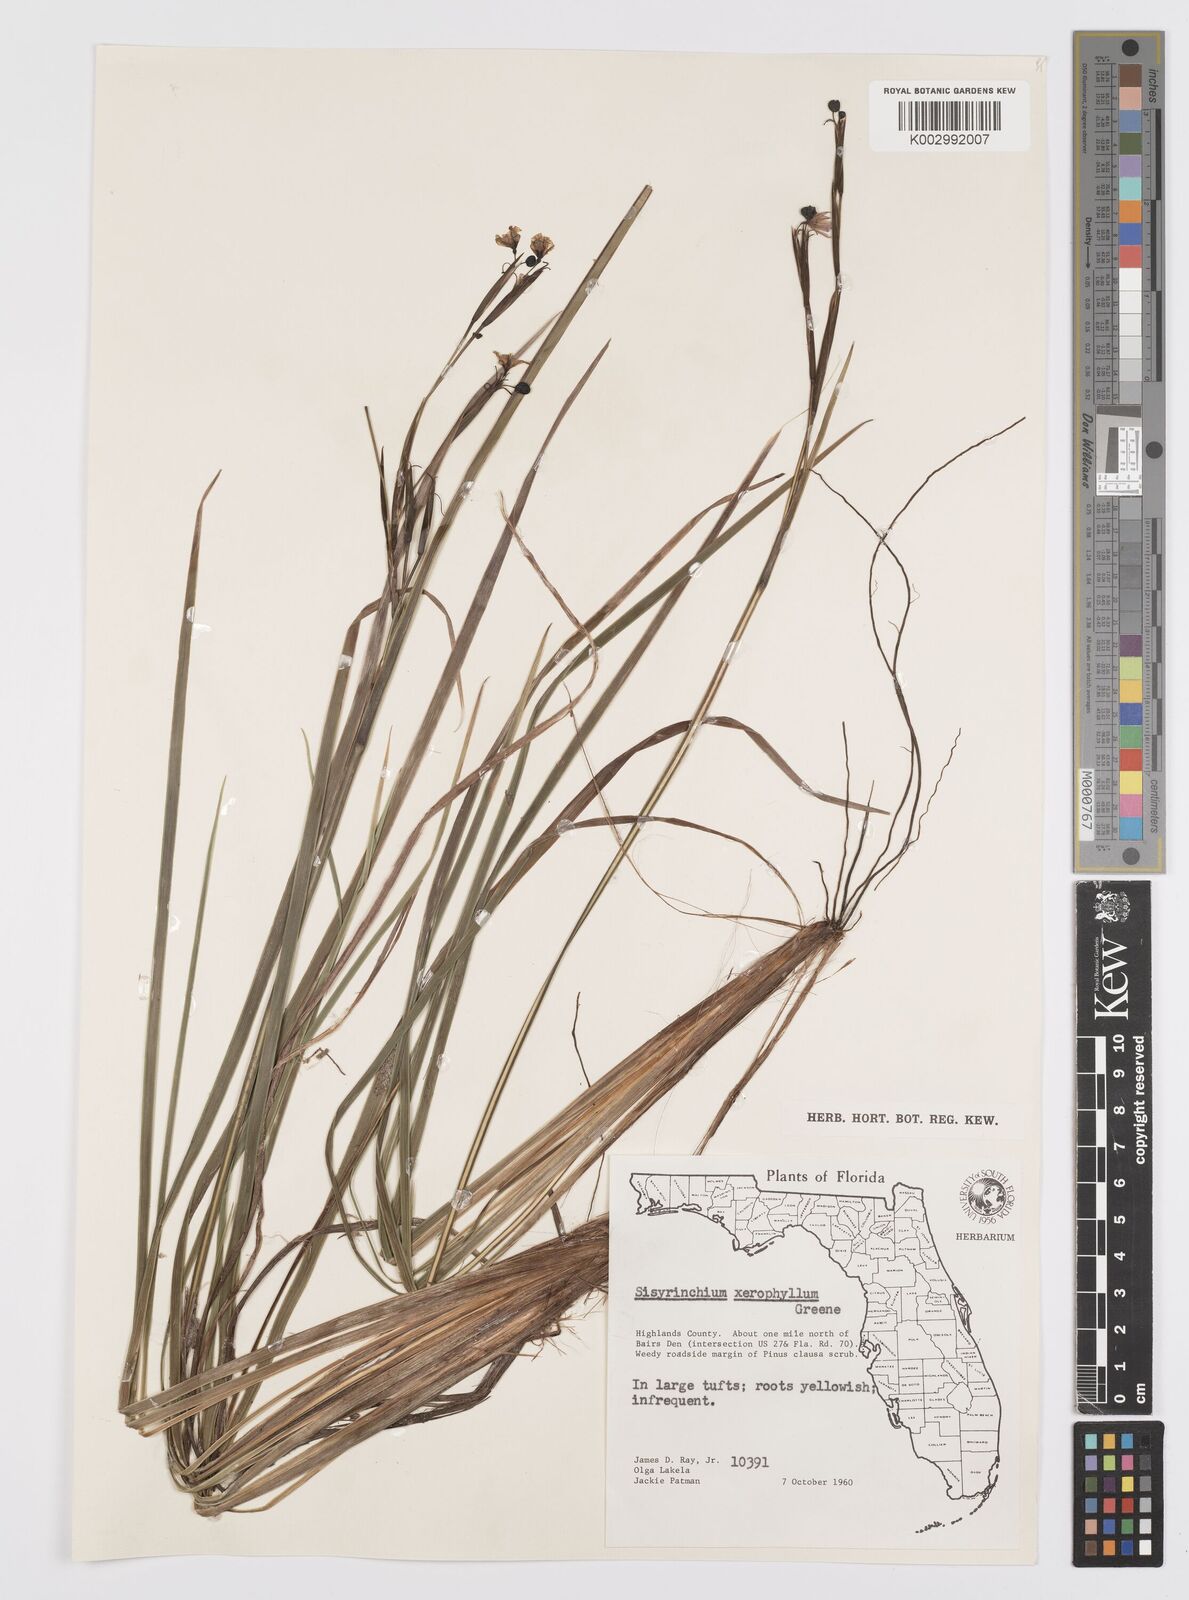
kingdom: Plantae
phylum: Tracheophyta
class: Liliopsida
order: Asparagales
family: Iridaceae
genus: Sisyrinchium
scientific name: Sisyrinchium xerophyllum
